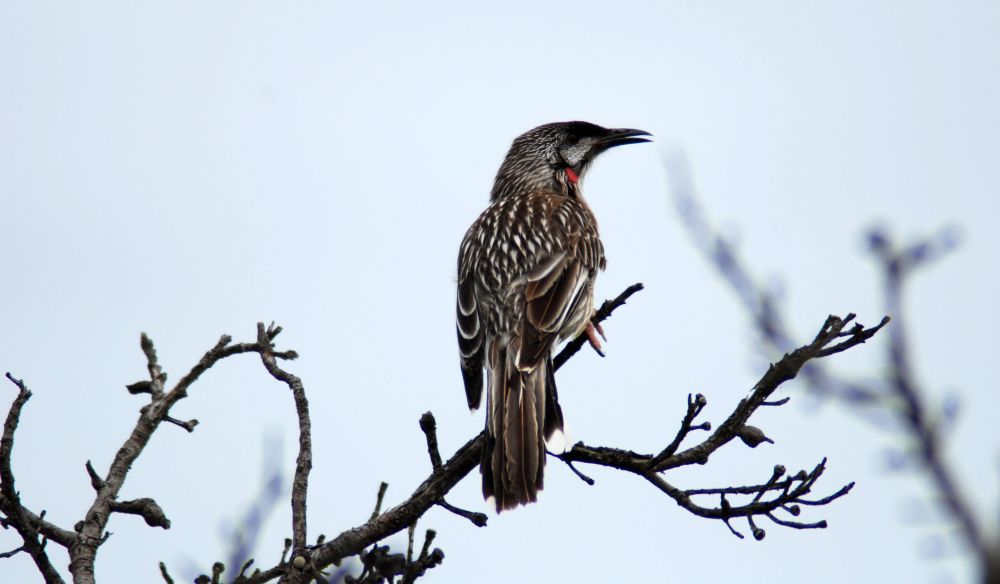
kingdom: Animalia
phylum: Chordata
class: Aves
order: Passeriformes
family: Meliphagidae
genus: Anthochaera
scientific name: Anthochaera carunculata
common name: Red wattlebird
